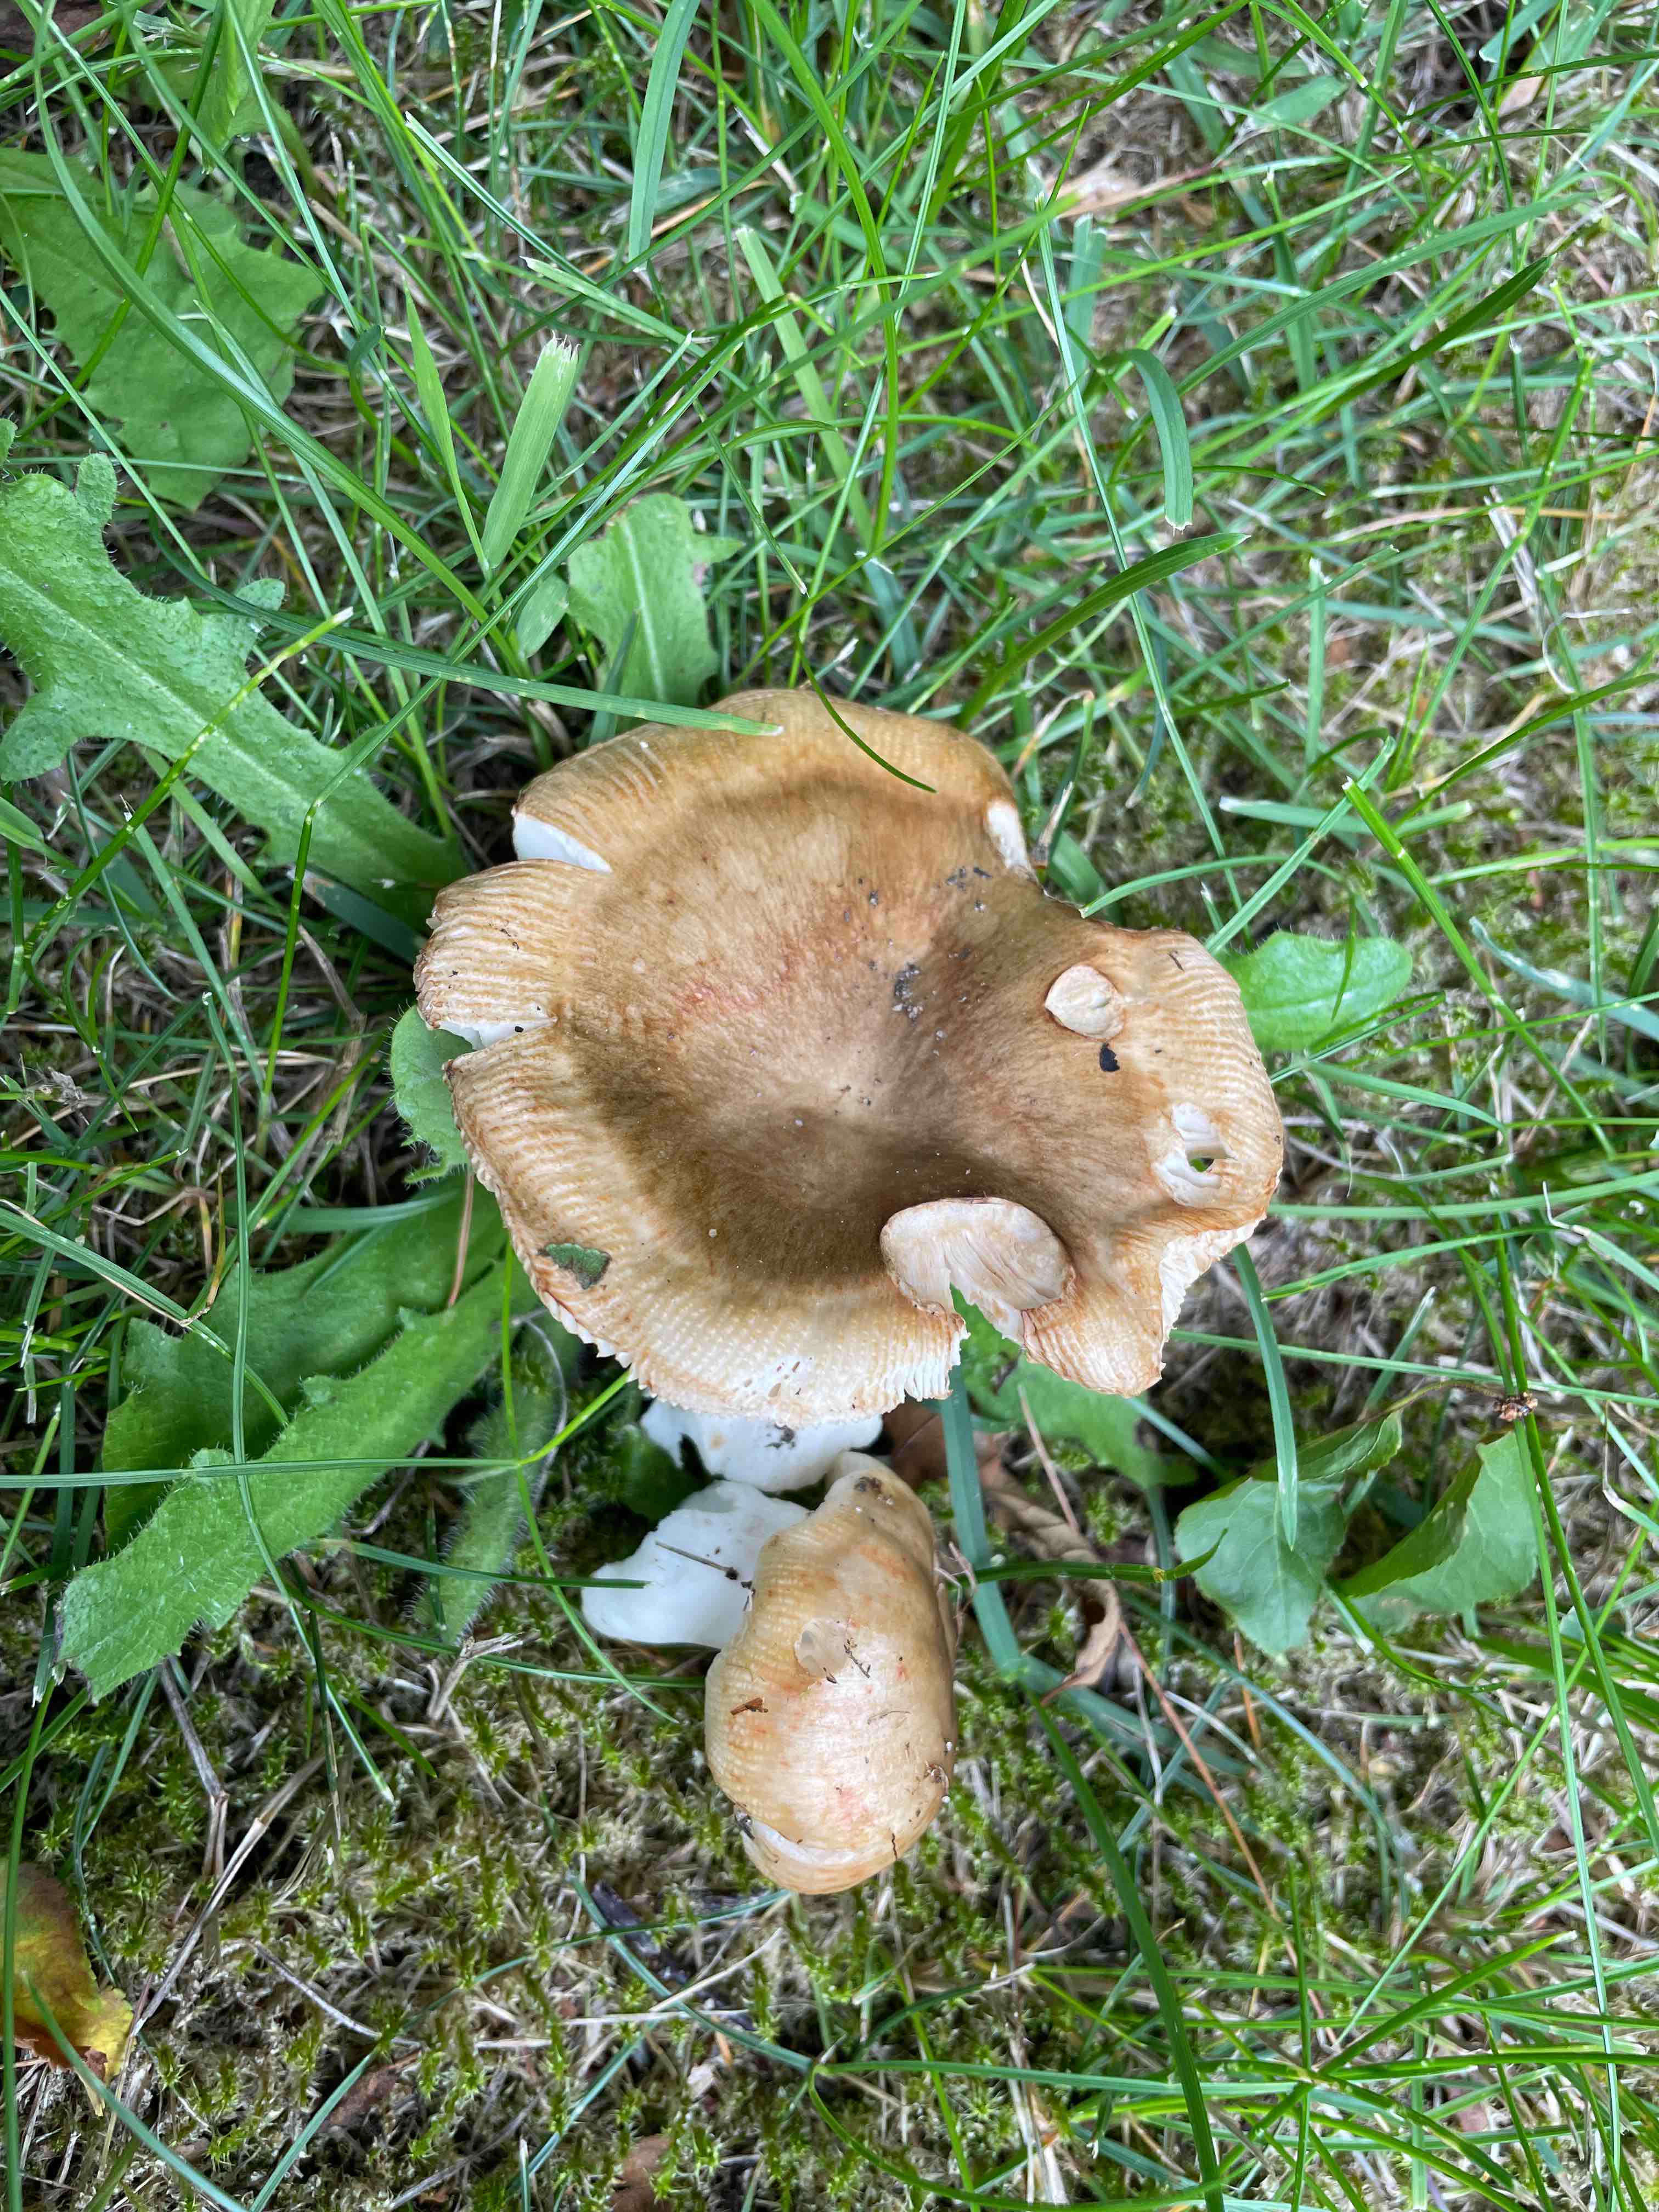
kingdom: Fungi
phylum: Basidiomycota
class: Agaricomycetes
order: Russulales
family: Russulaceae
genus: Russula
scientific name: Russula recondita
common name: mild kam-skørhat
